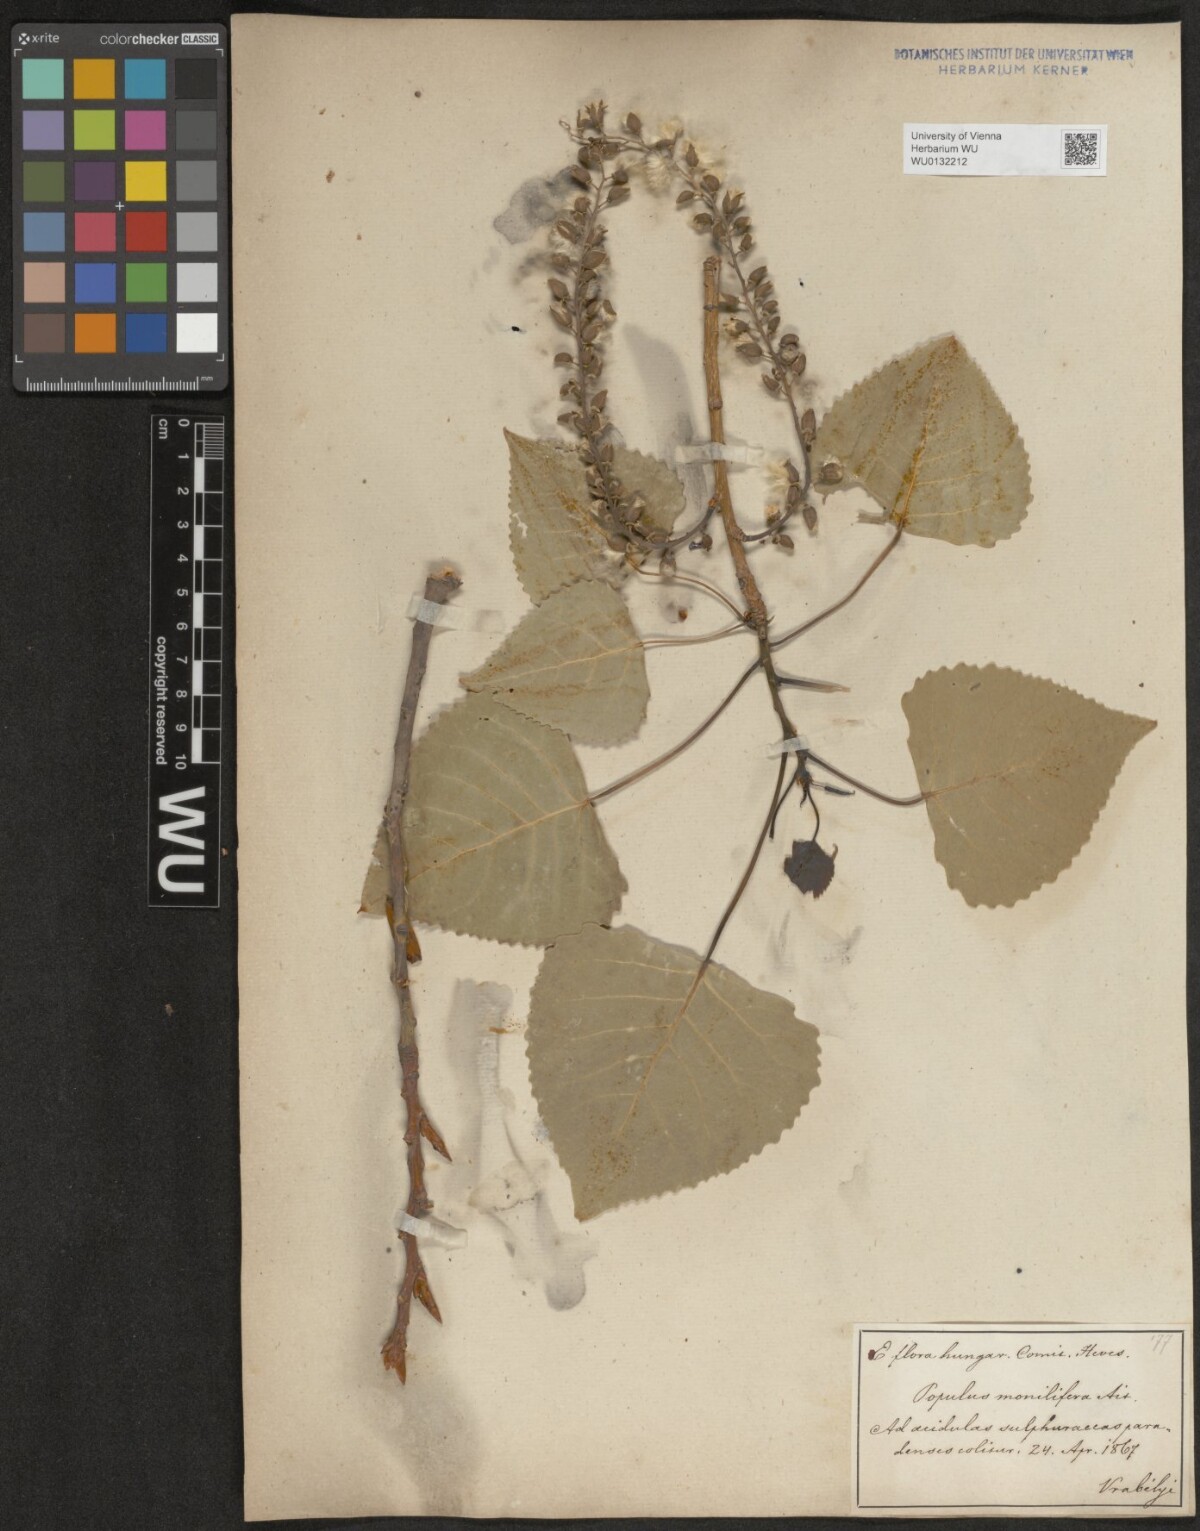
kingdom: Plantae
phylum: Tracheophyta
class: Magnoliopsida
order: Malpighiales
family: Salicaceae
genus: Populus
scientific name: Populus monilifera
